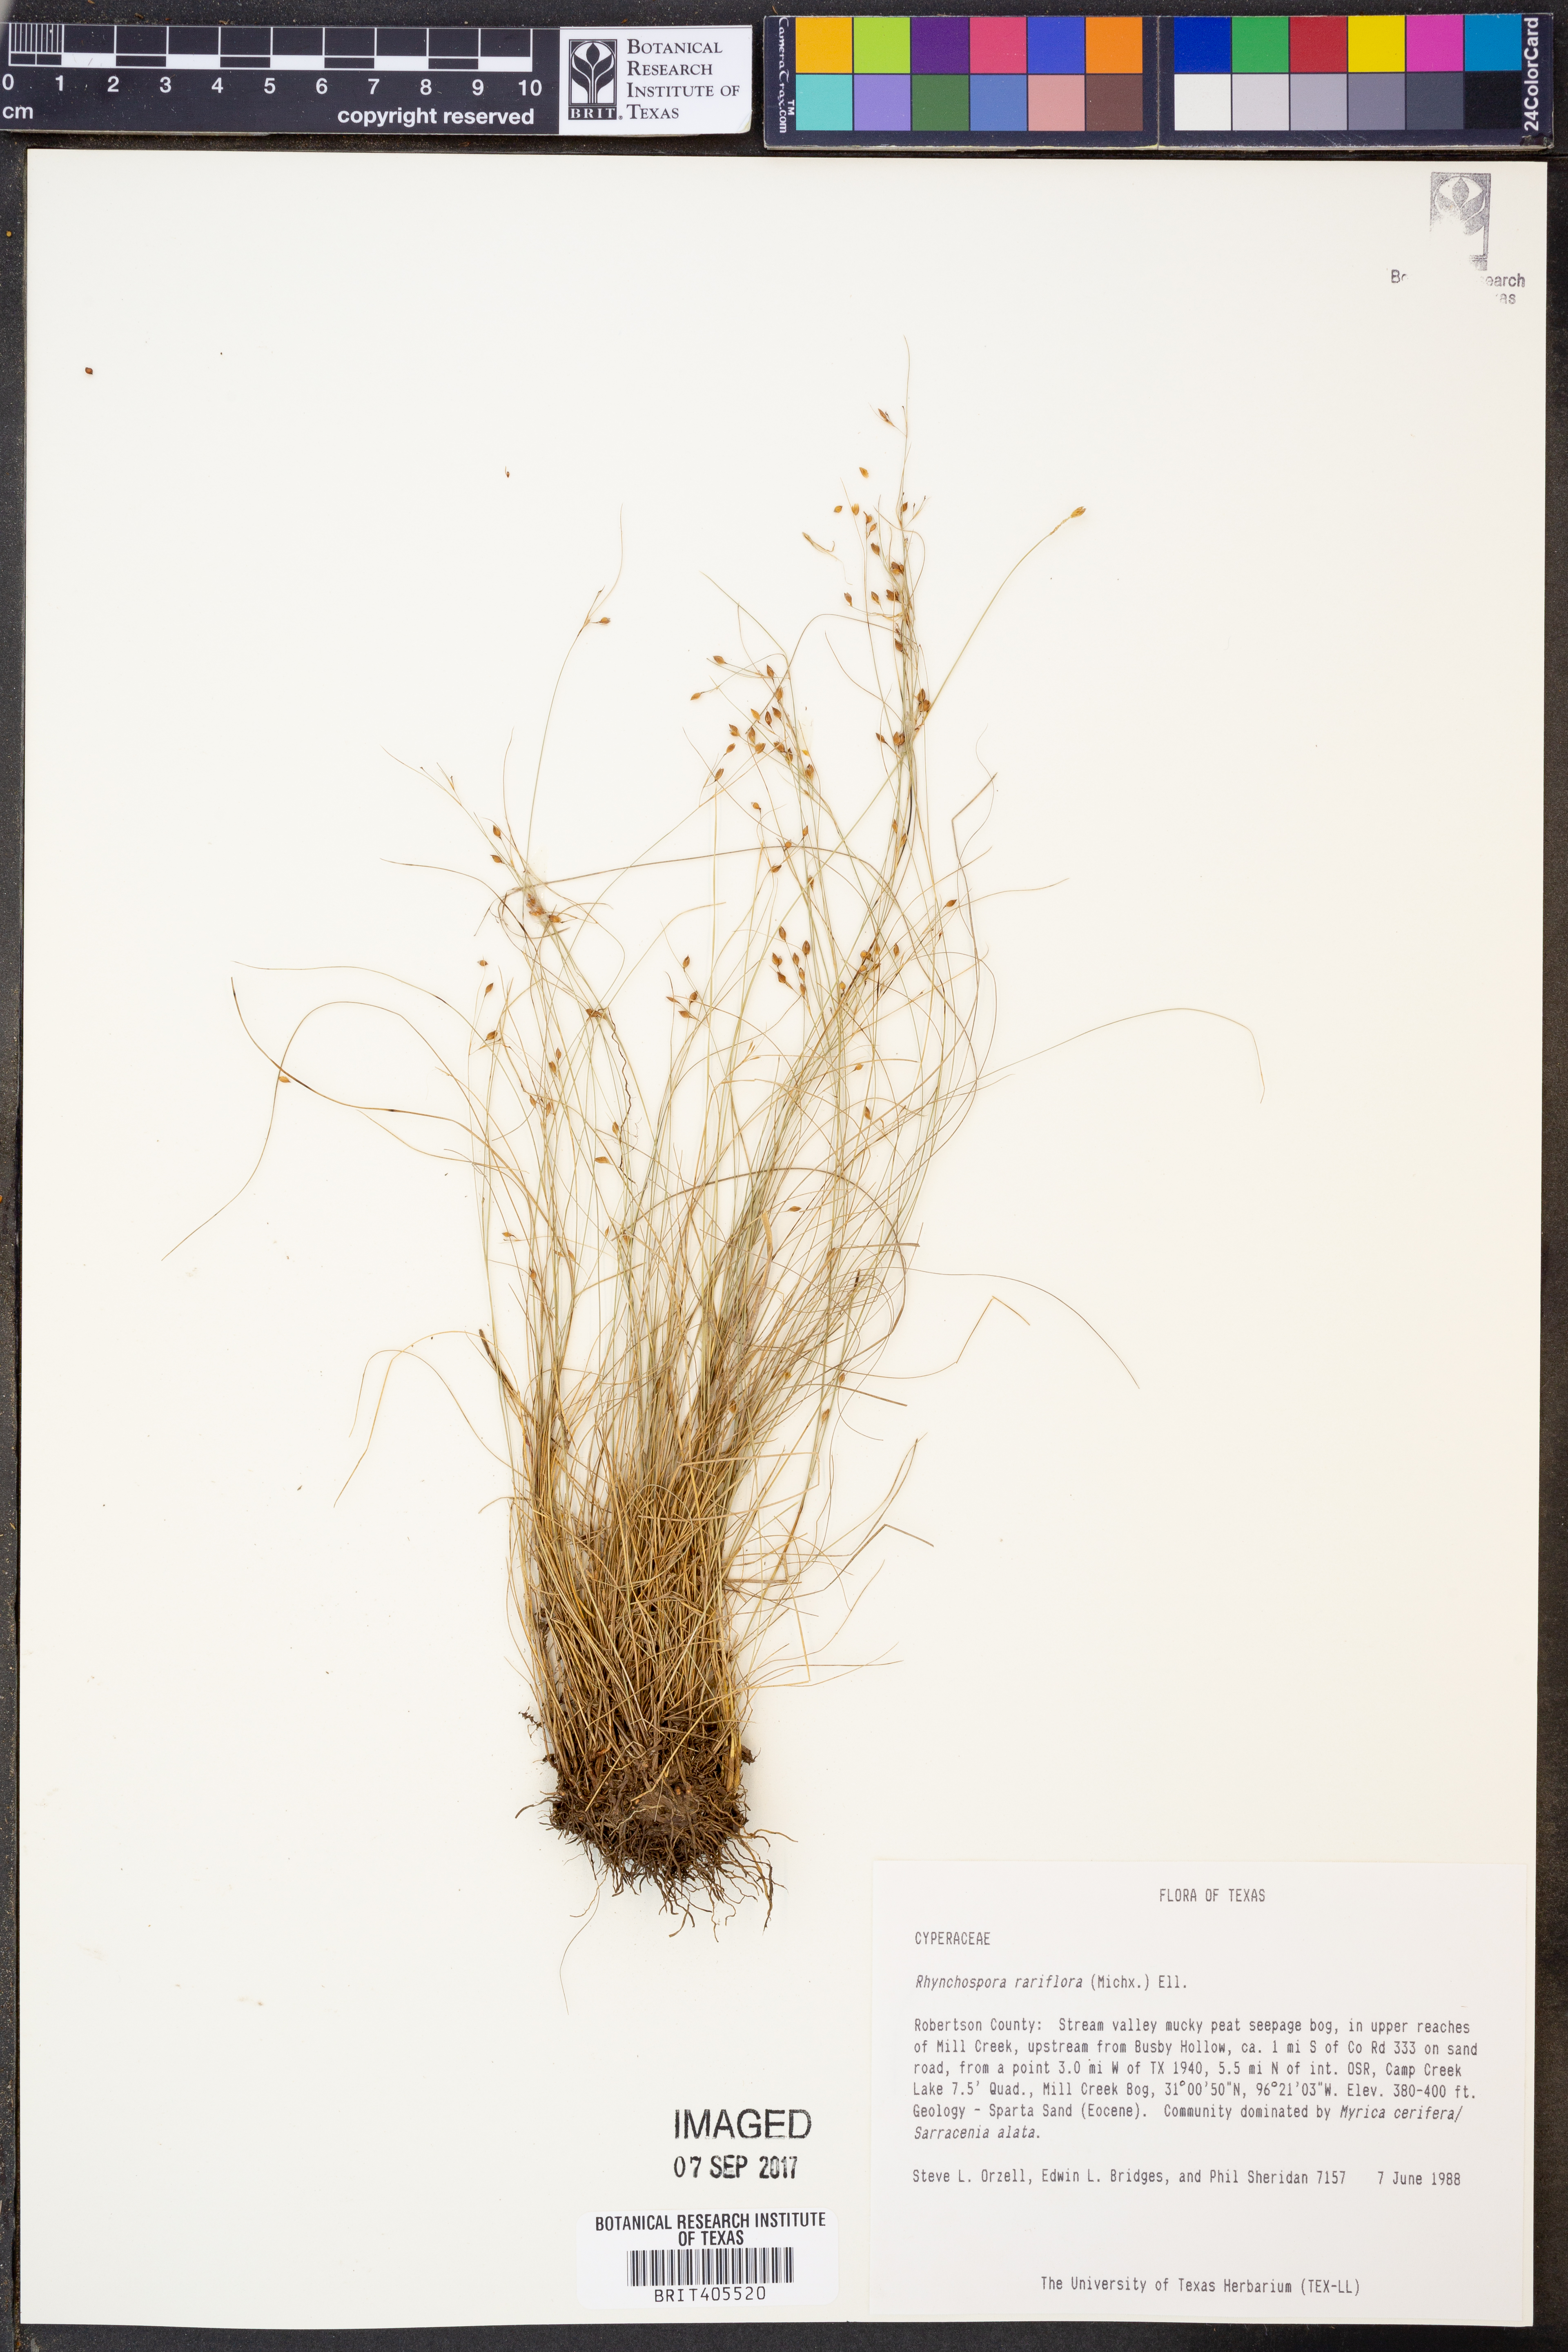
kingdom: Plantae
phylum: Tracheophyta
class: Liliopsida
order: Poales
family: Cyperaceae
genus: Rhynchospora
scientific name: Rhynchospora rariflora
